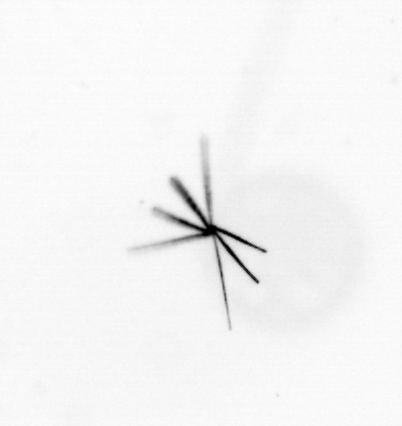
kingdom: Chromista
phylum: Ochrophyta
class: Bacillariophyceae
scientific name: Bacillariophyceae
